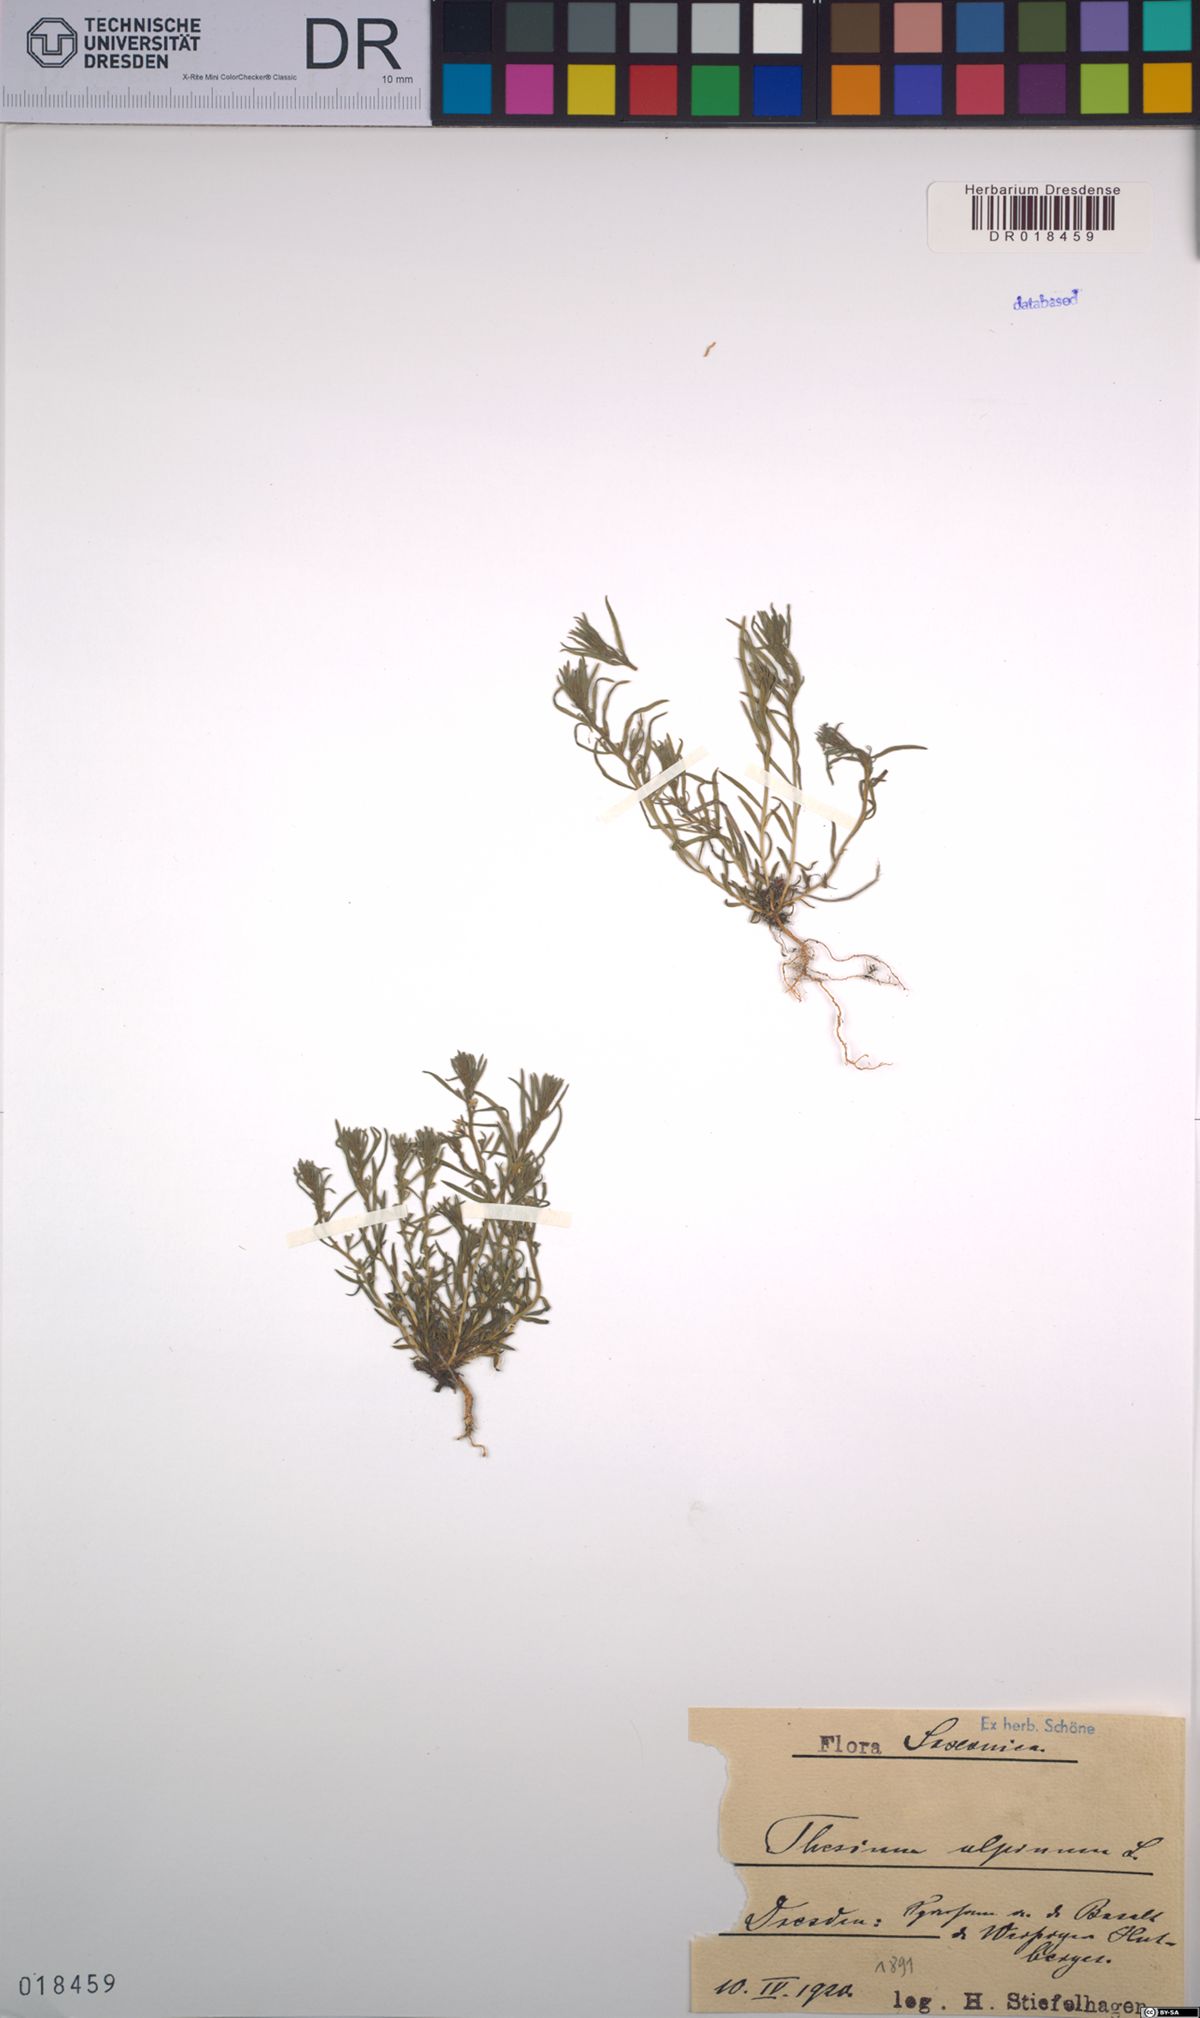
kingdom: Plantae
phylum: Tracheophyta
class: Magnoliopsida
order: Santalales
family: Thesiaceae
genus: Thesium
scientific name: Thesium alpinum
